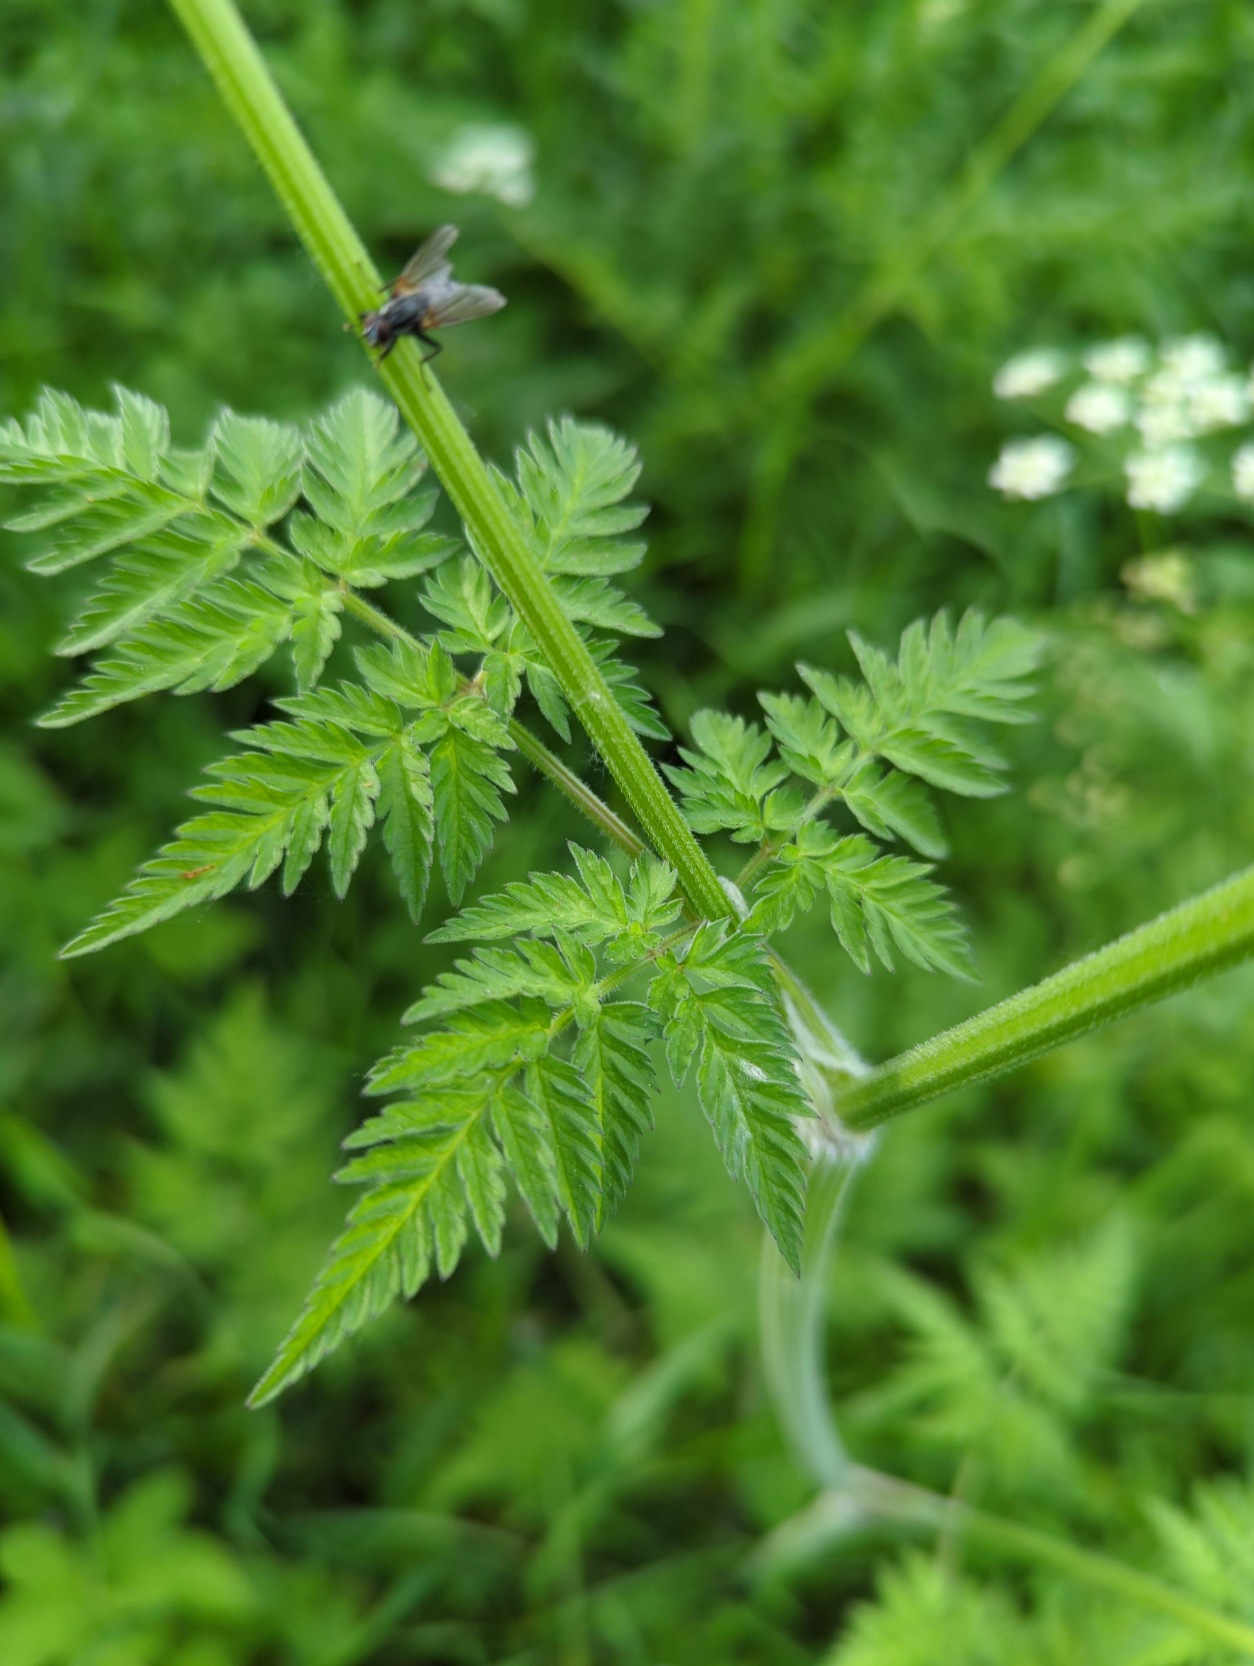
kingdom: Plantae
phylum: Tracheophyta
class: Magnoliopsida
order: Apiales
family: Apiaceae
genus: Anthriscus
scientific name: Anthriscus sylvestris
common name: Vild kørvel
